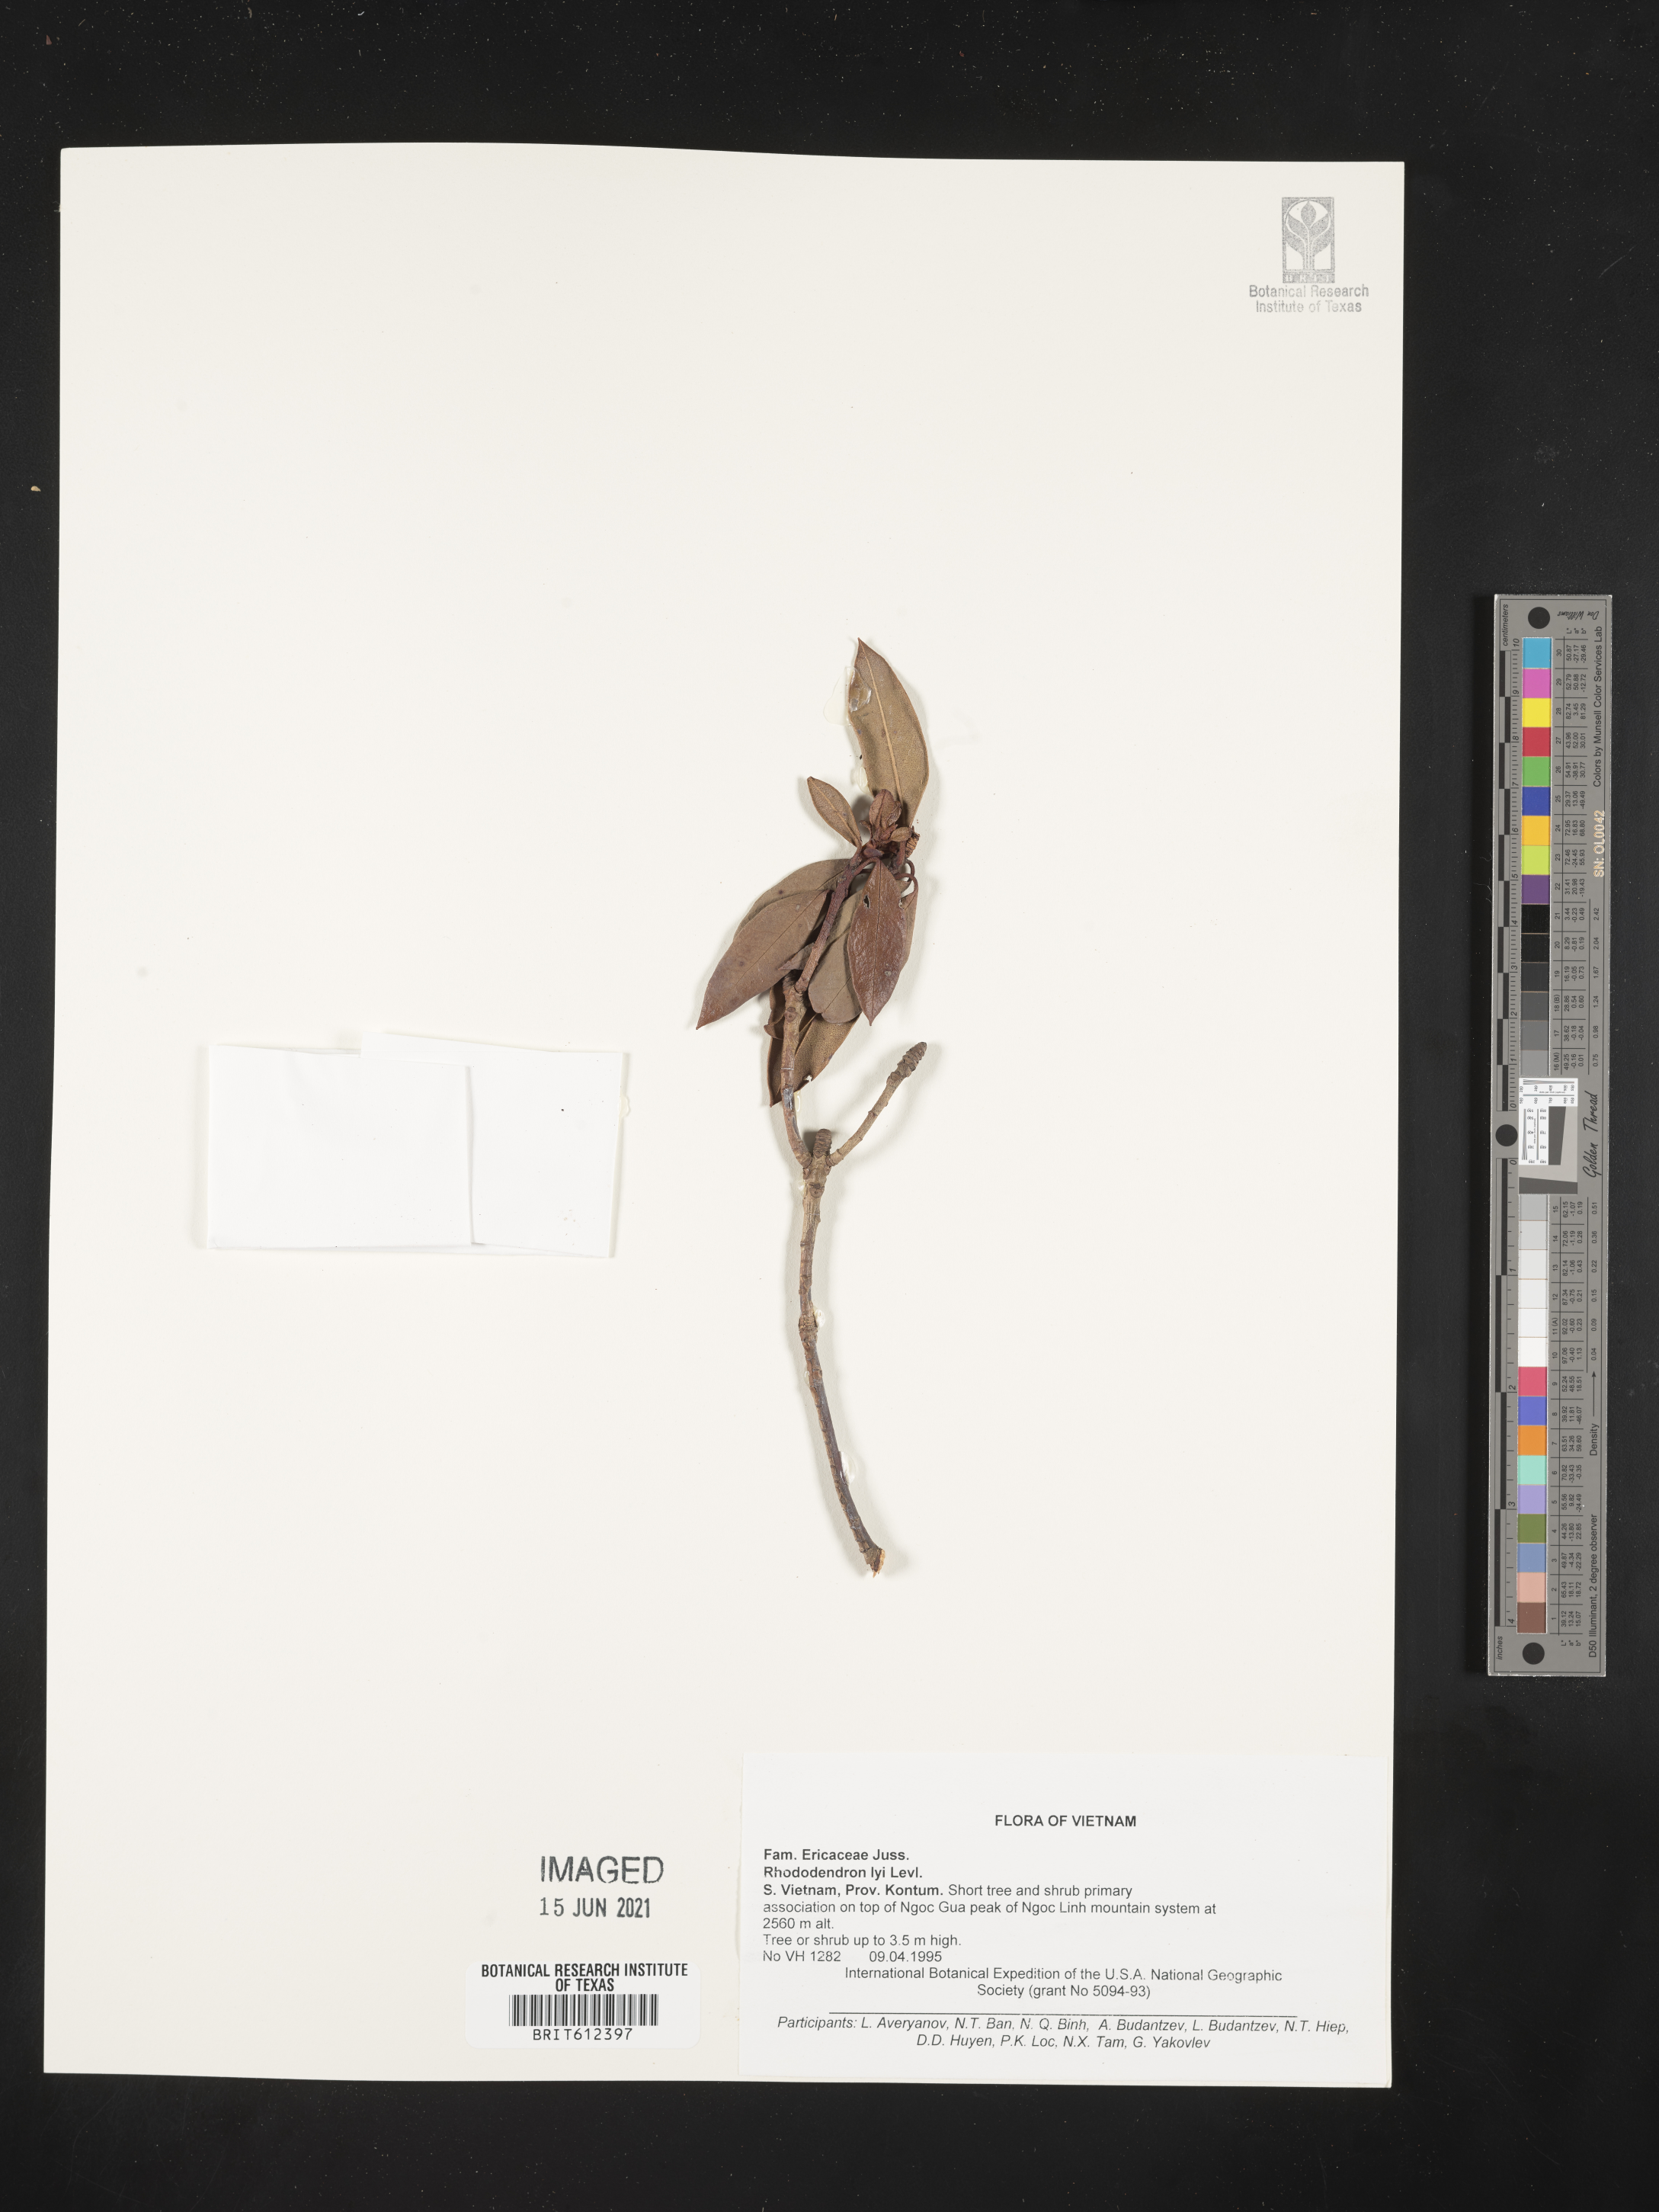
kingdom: Plantae
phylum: Tracheophyta
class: Magnoliopsida
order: Ericales
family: Ericaceae
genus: Rhododendron
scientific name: Rhododendron ciliicalyx
